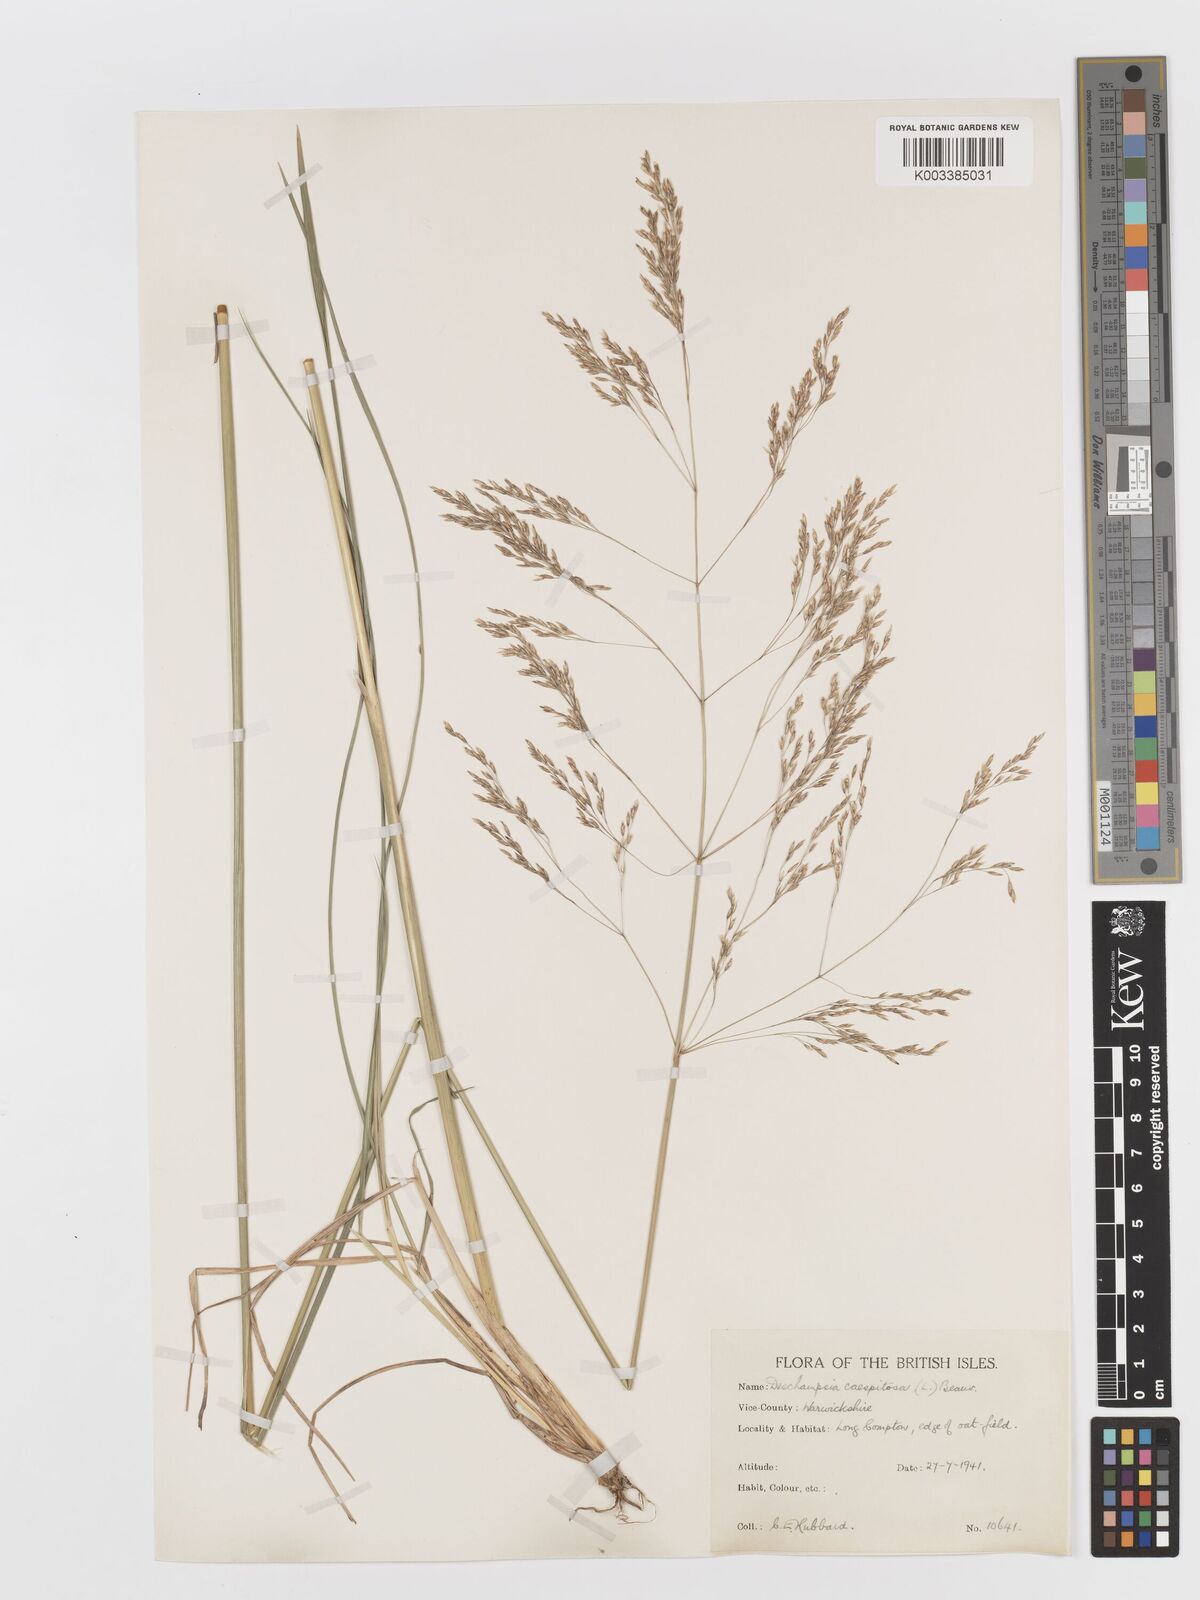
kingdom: Plantae
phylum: Tracheophyta
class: Liliopsida
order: Poales
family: Poaceae
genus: Deschampsia
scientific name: Deschampsia cespitosa
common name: Tufted hair-grass
